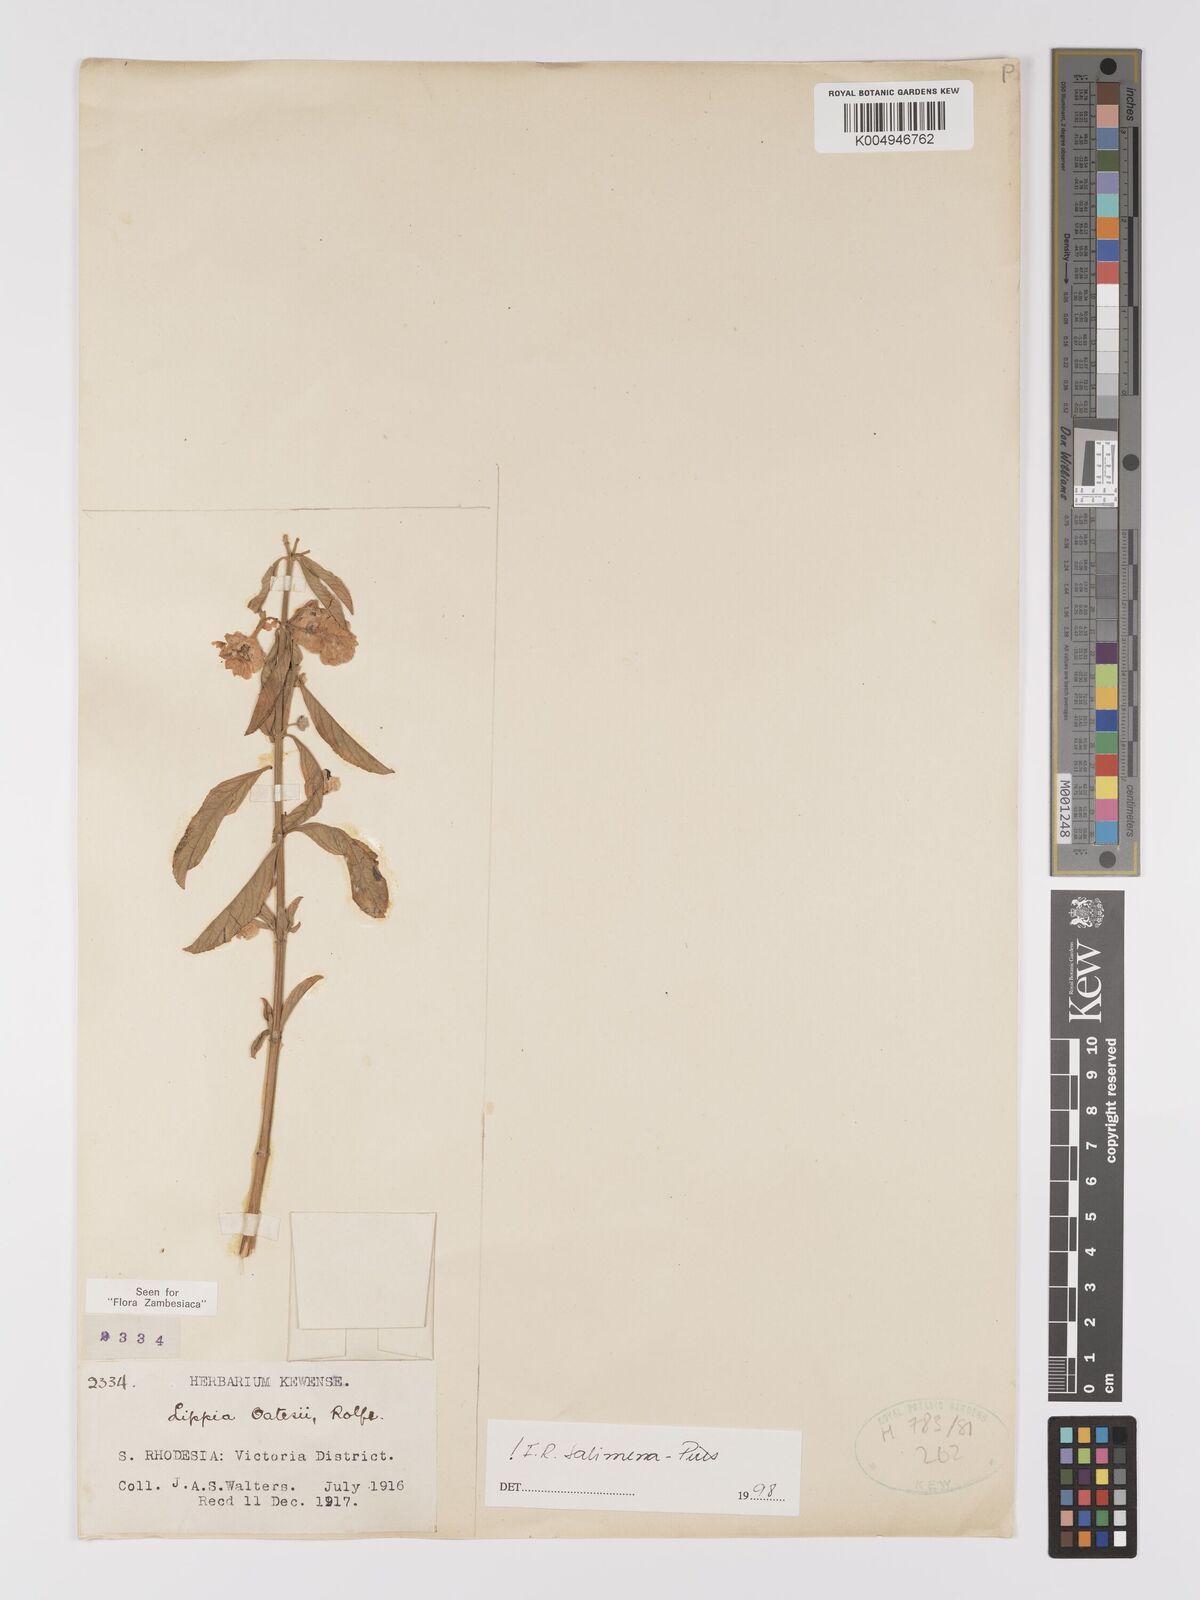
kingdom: Plantae
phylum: Tracheophyta
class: Magnoliopsida
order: Lamiales
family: Verbenaceae
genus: Lippia
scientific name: Lippia oatesii
